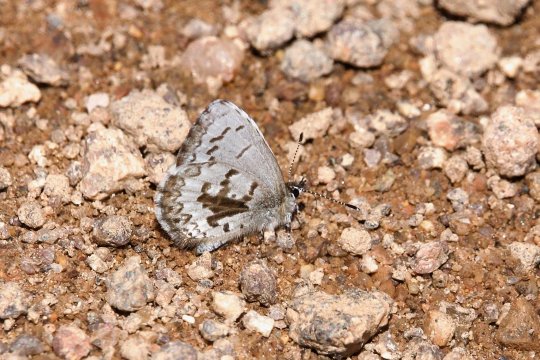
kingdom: Animalia
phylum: Arthropoda
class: Insecta
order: Lepidoptera
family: Lycaenidae
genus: Celastrina
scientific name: Celastrina lucia
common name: Northern Spring Azure
